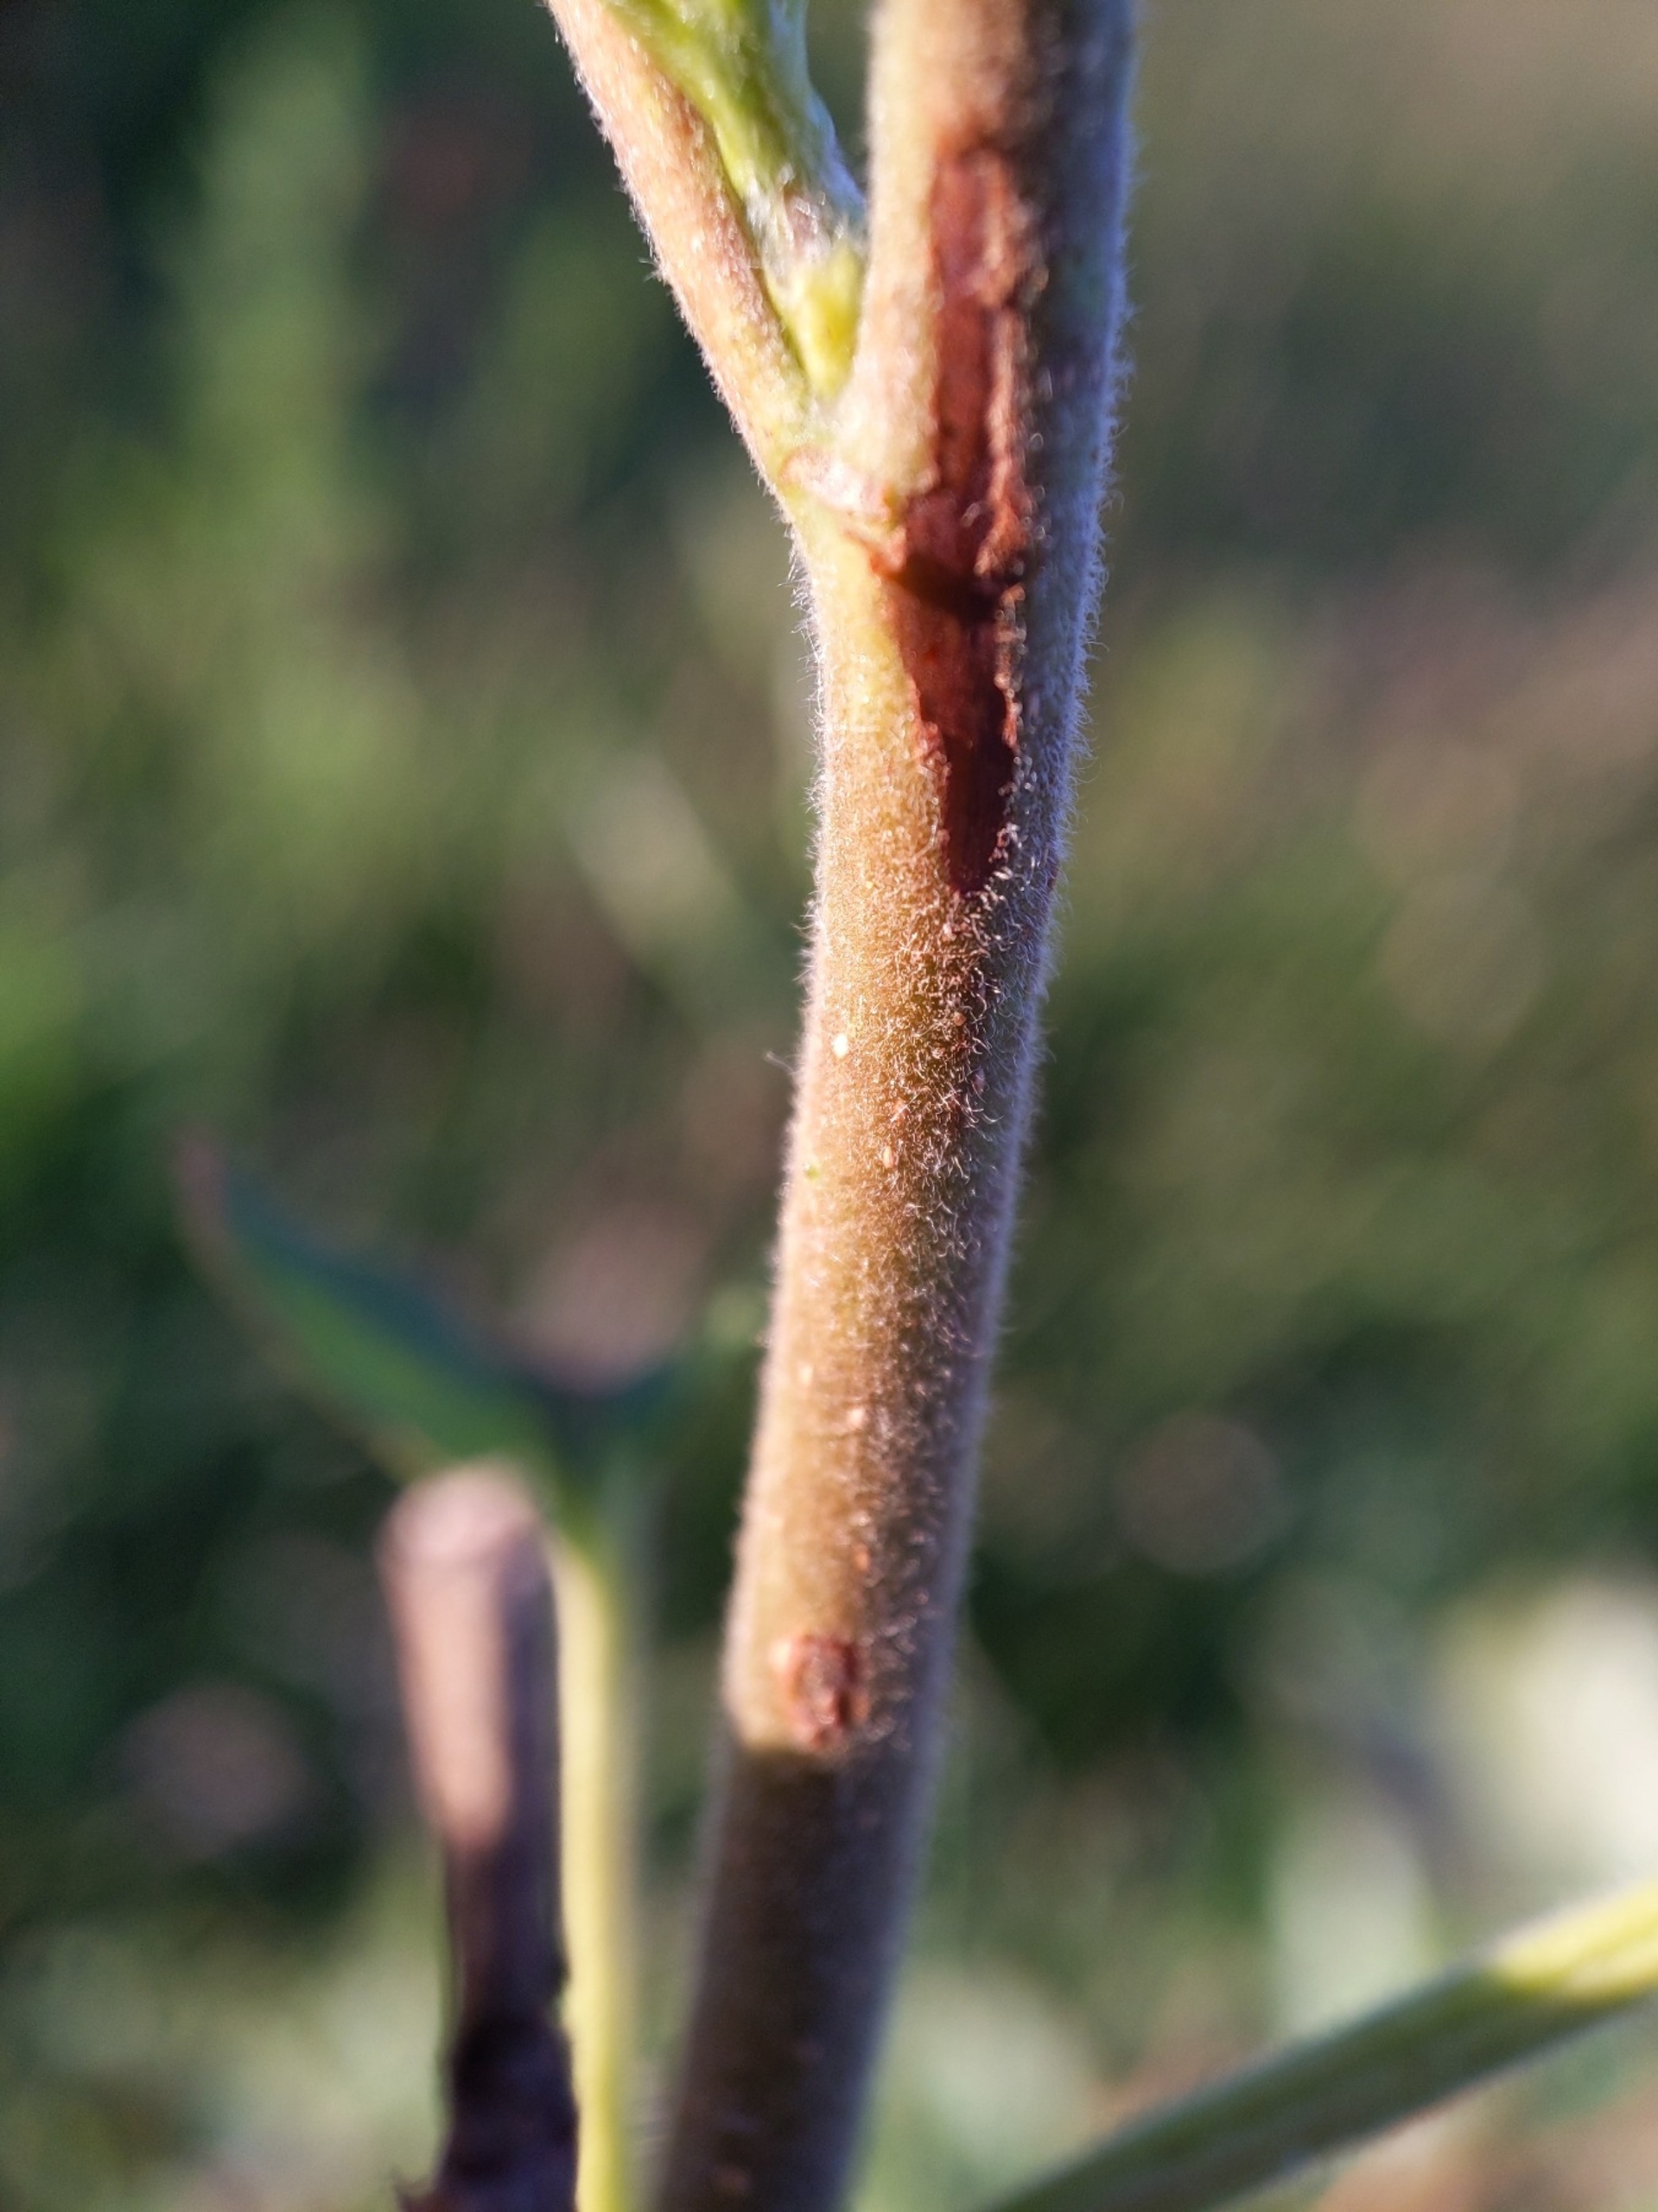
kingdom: Plantae
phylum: Tracheophyta
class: Magnoliopsida
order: Fagales
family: Betulaceae
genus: Betula
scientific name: Betula pubescens
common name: Dun-birk
